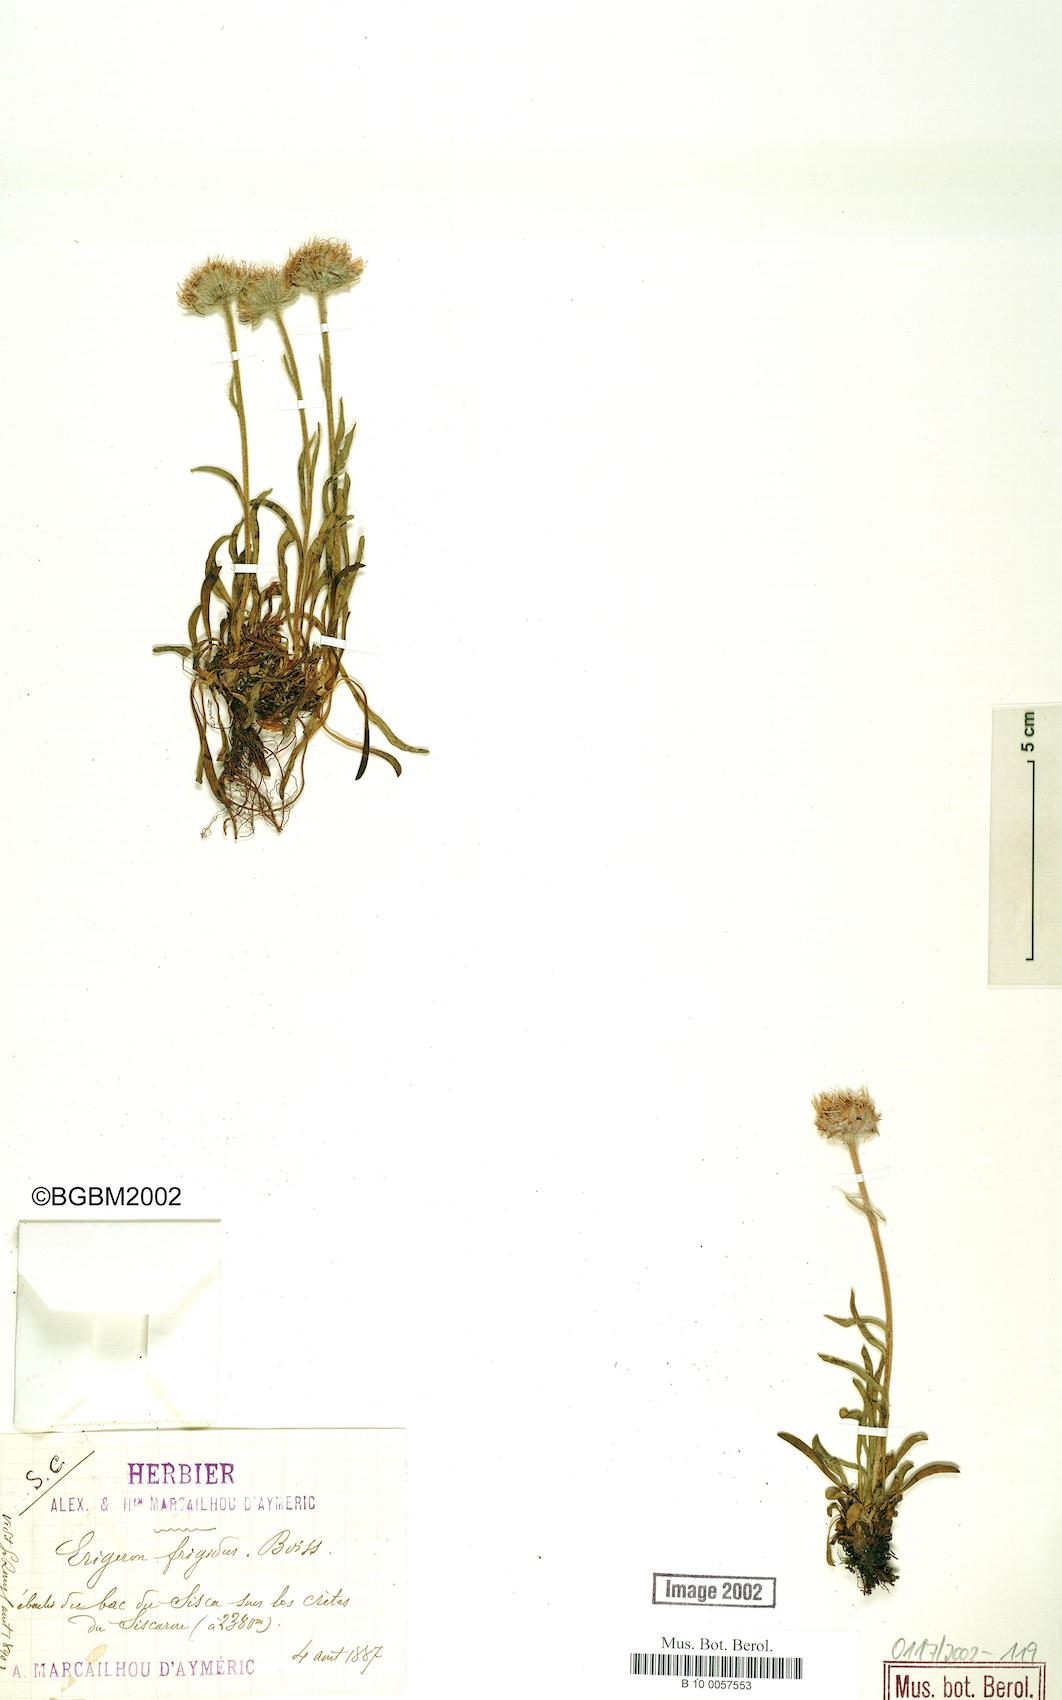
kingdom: Plantae
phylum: Tracheophyta
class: Magnoliopsida
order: Asterales
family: Asteraceae
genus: Erigeron
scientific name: Erigeron aragonensis
